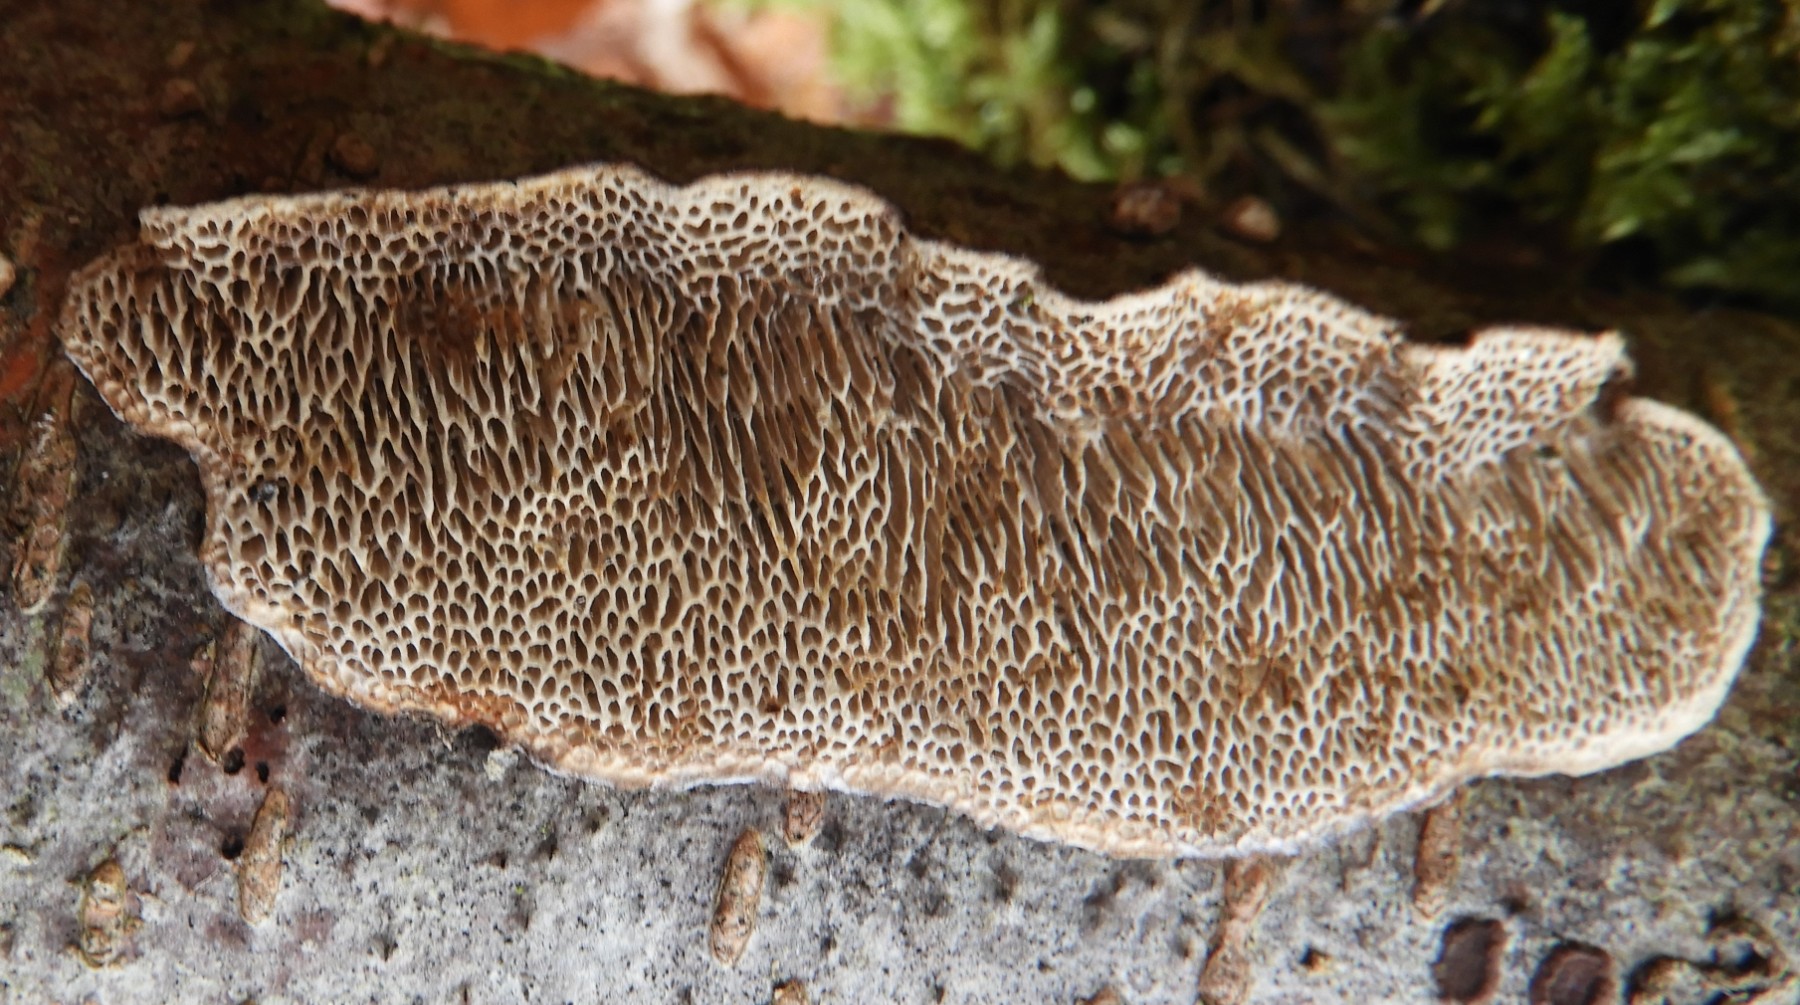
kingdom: Fungi
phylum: Basidiomycota
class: Agaricomycetes
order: Polyporales
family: Polyporaceae
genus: Podofomes
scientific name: Podofomes mollis
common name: blød begporesvamp
